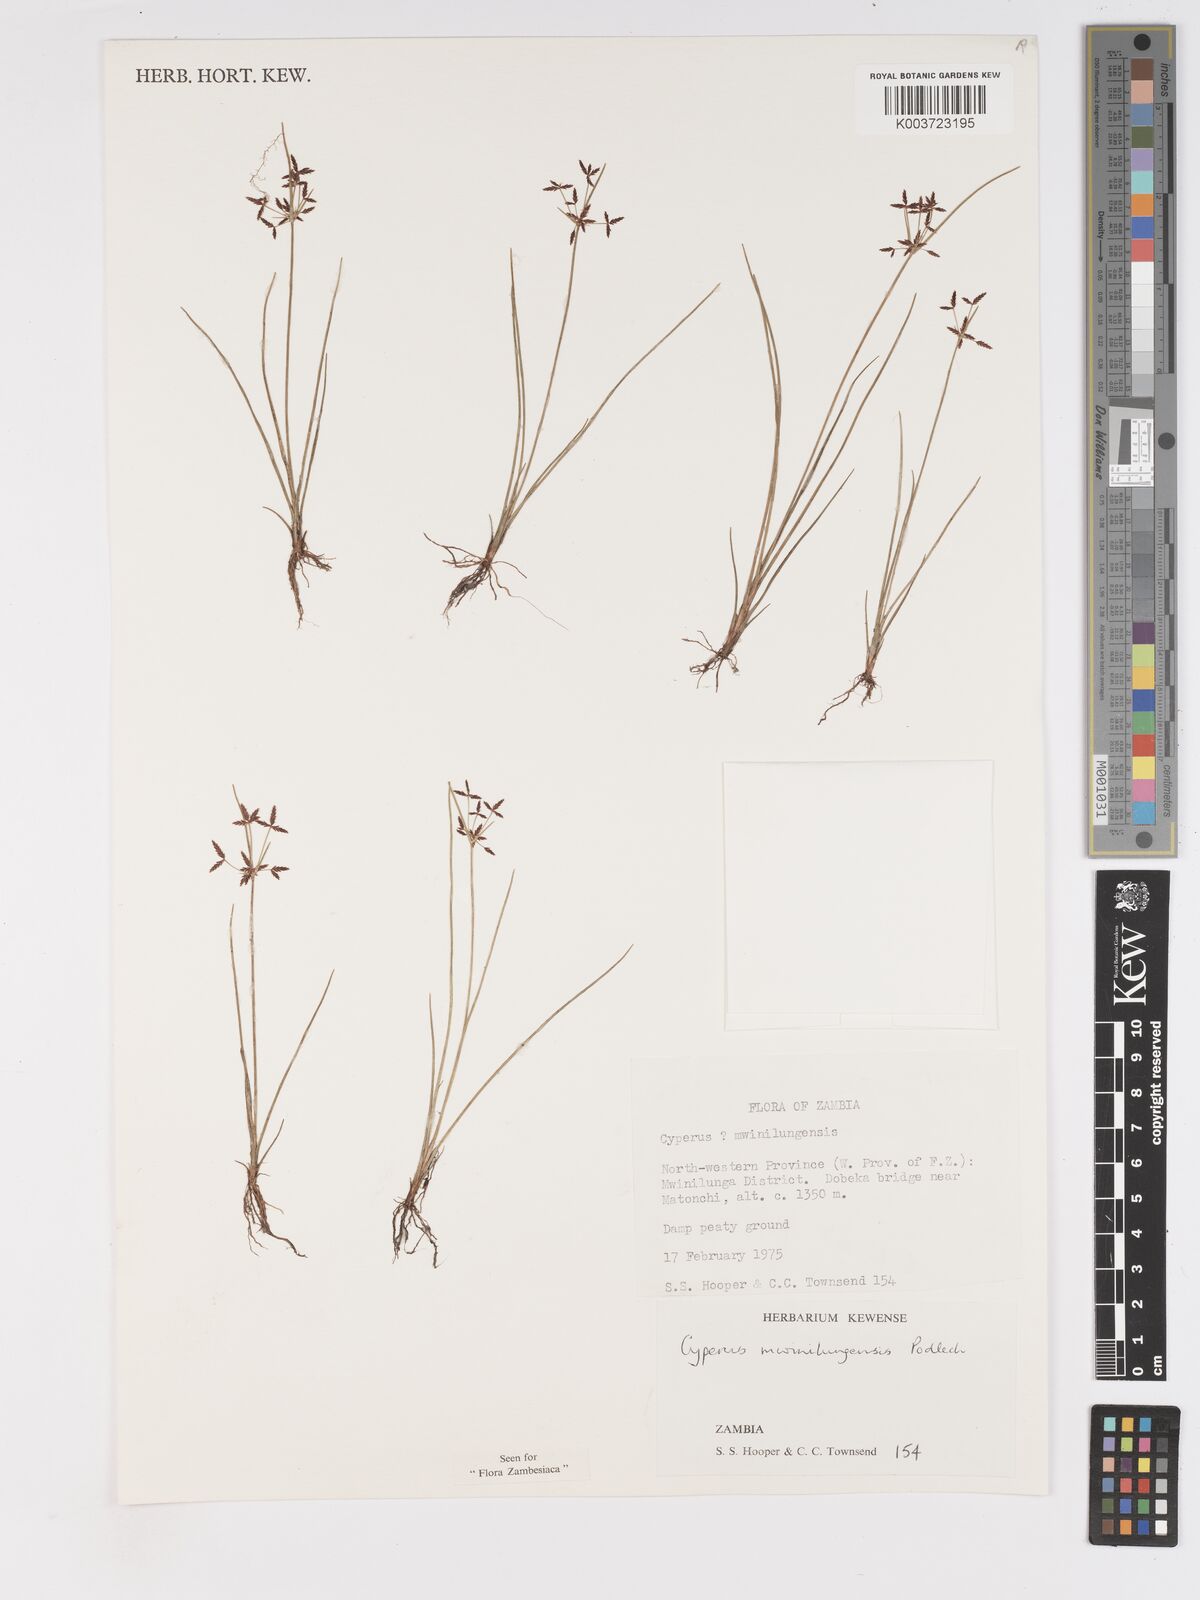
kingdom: Plantae
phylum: Tracheophyta
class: Liliopsida
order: Poales
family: Cyperaceae
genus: Cyperus
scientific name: Cyperus mwinilungensis
